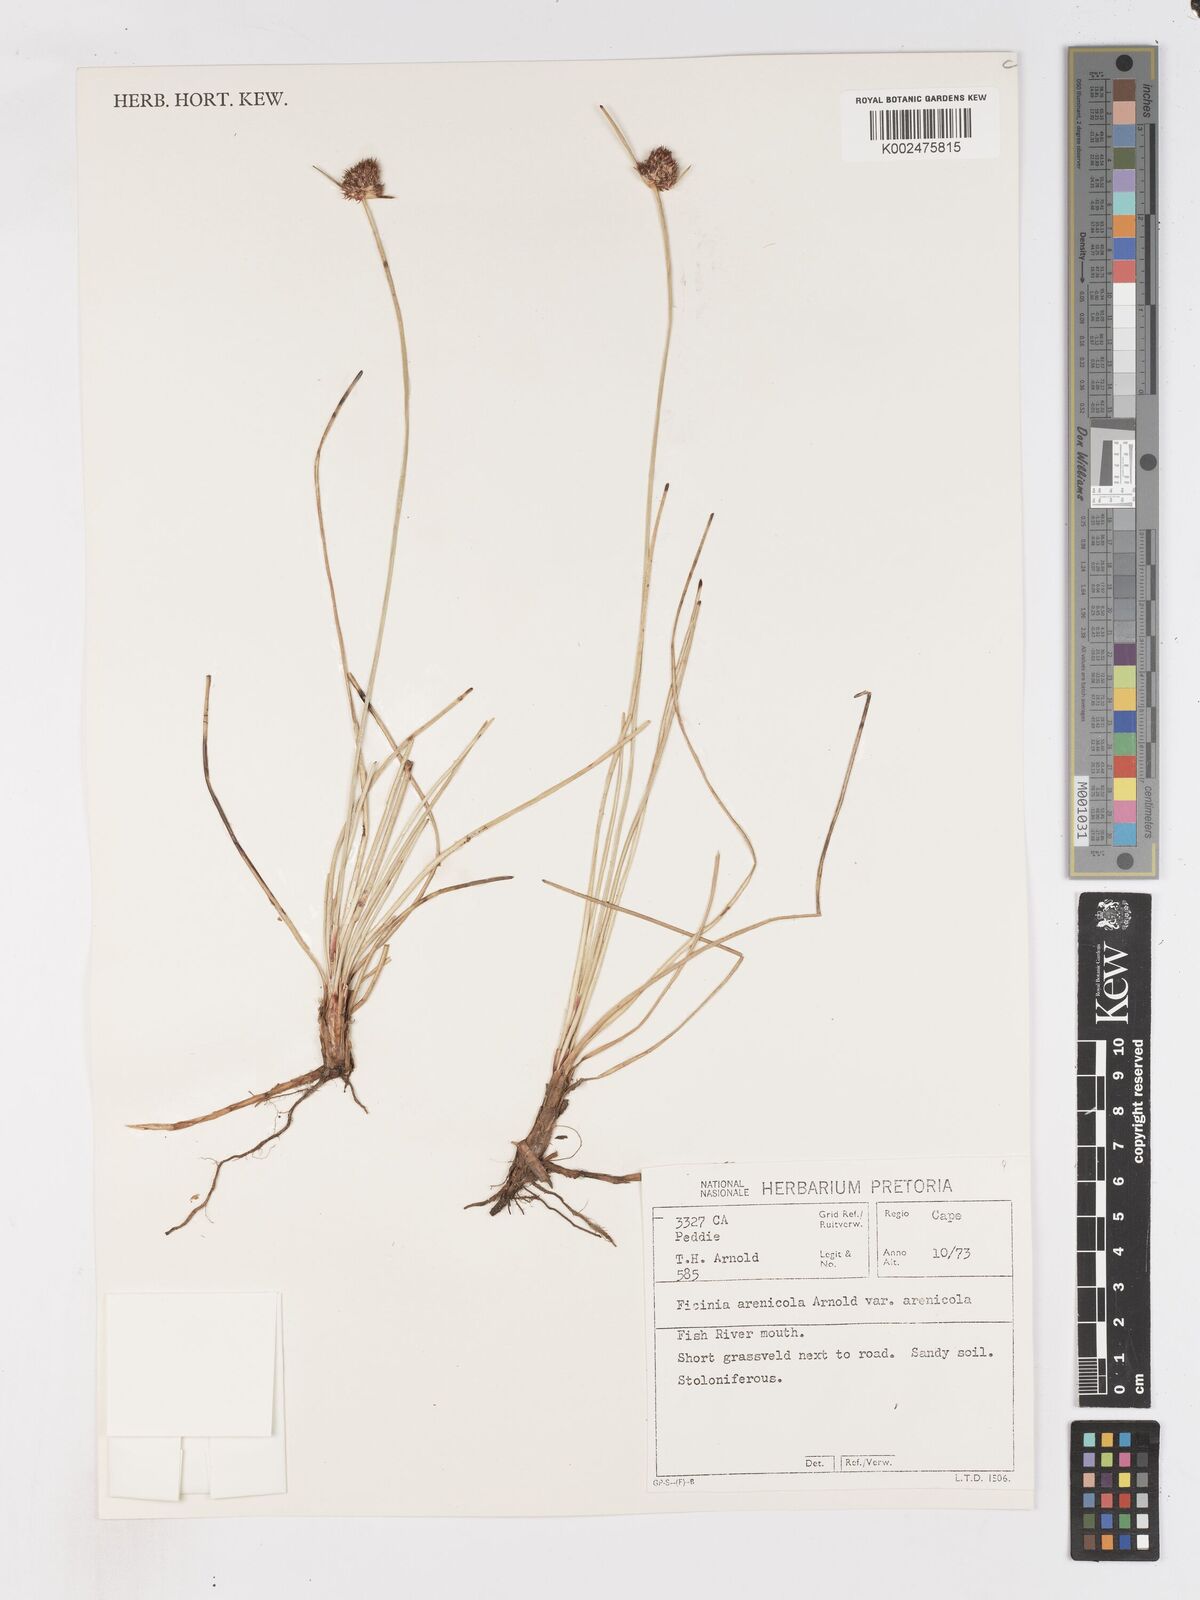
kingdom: Plantae
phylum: Tracheophyta
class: Liliopsida
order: Poales
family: Cyperaceae
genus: Ficinia
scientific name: Ficinia arenicola
